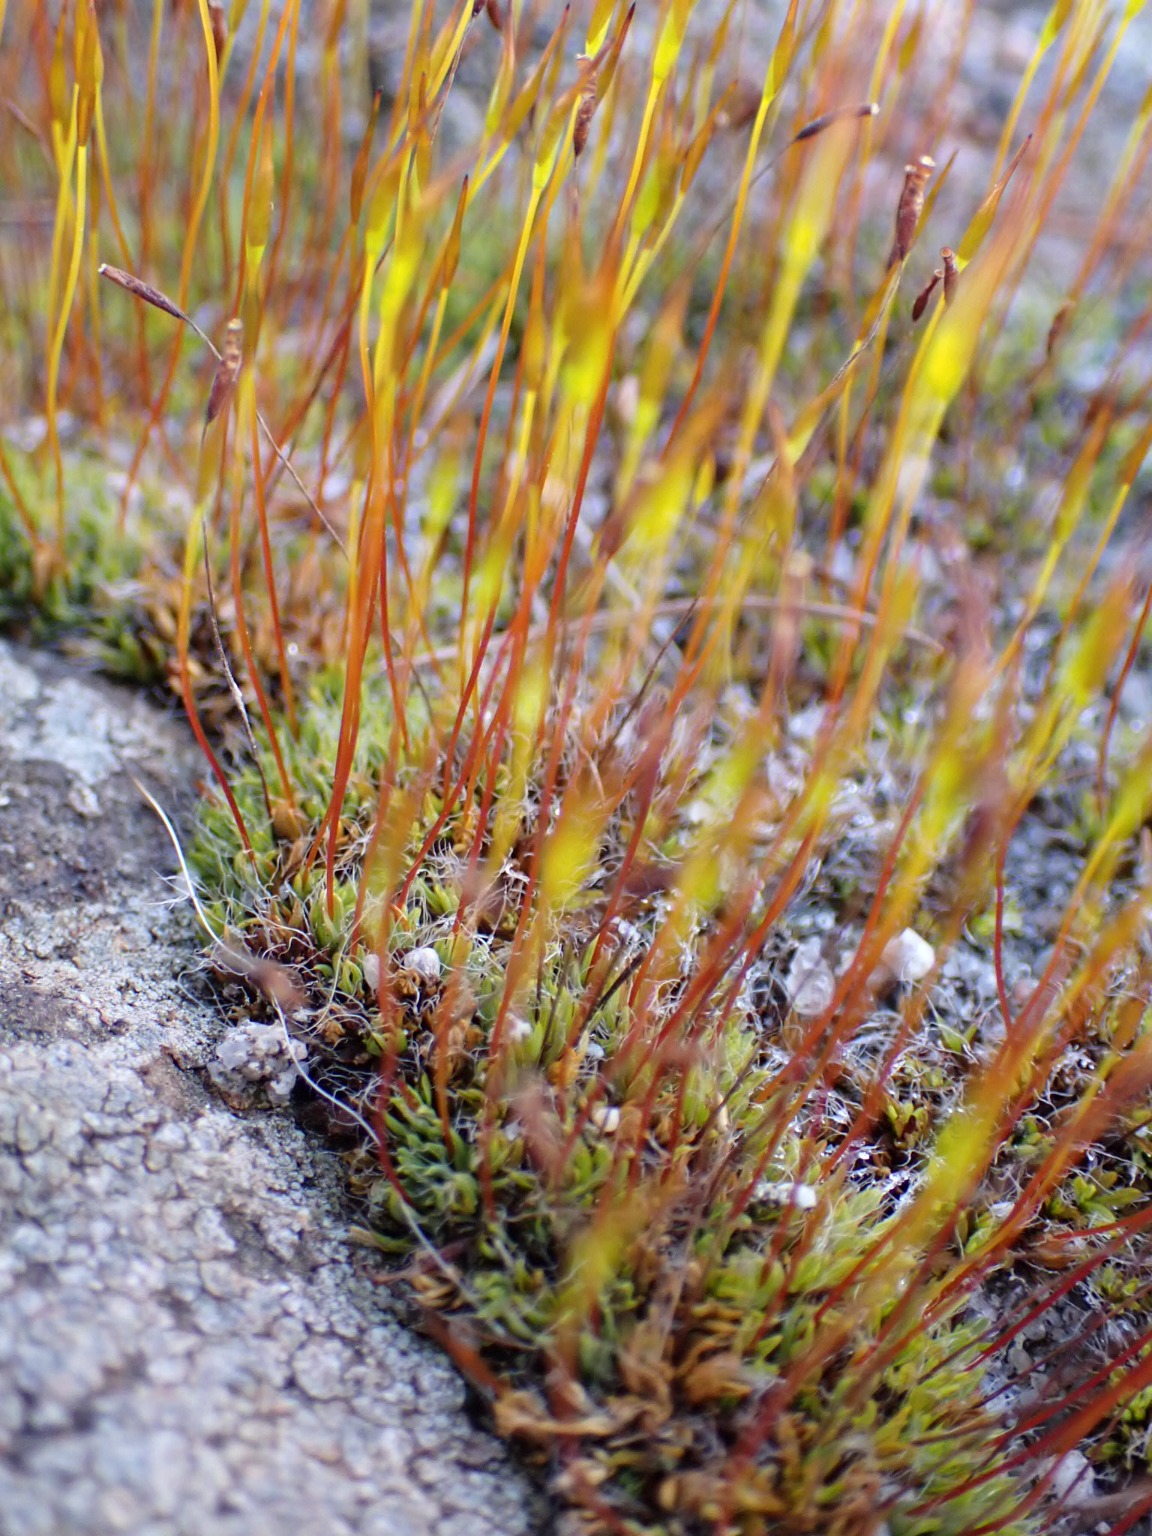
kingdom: Plantae
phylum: Bryophyta
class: Bryopsida
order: Pottiales
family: Pottiaceae
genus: Tortula
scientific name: Tortula muralis
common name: Mur-snotand
